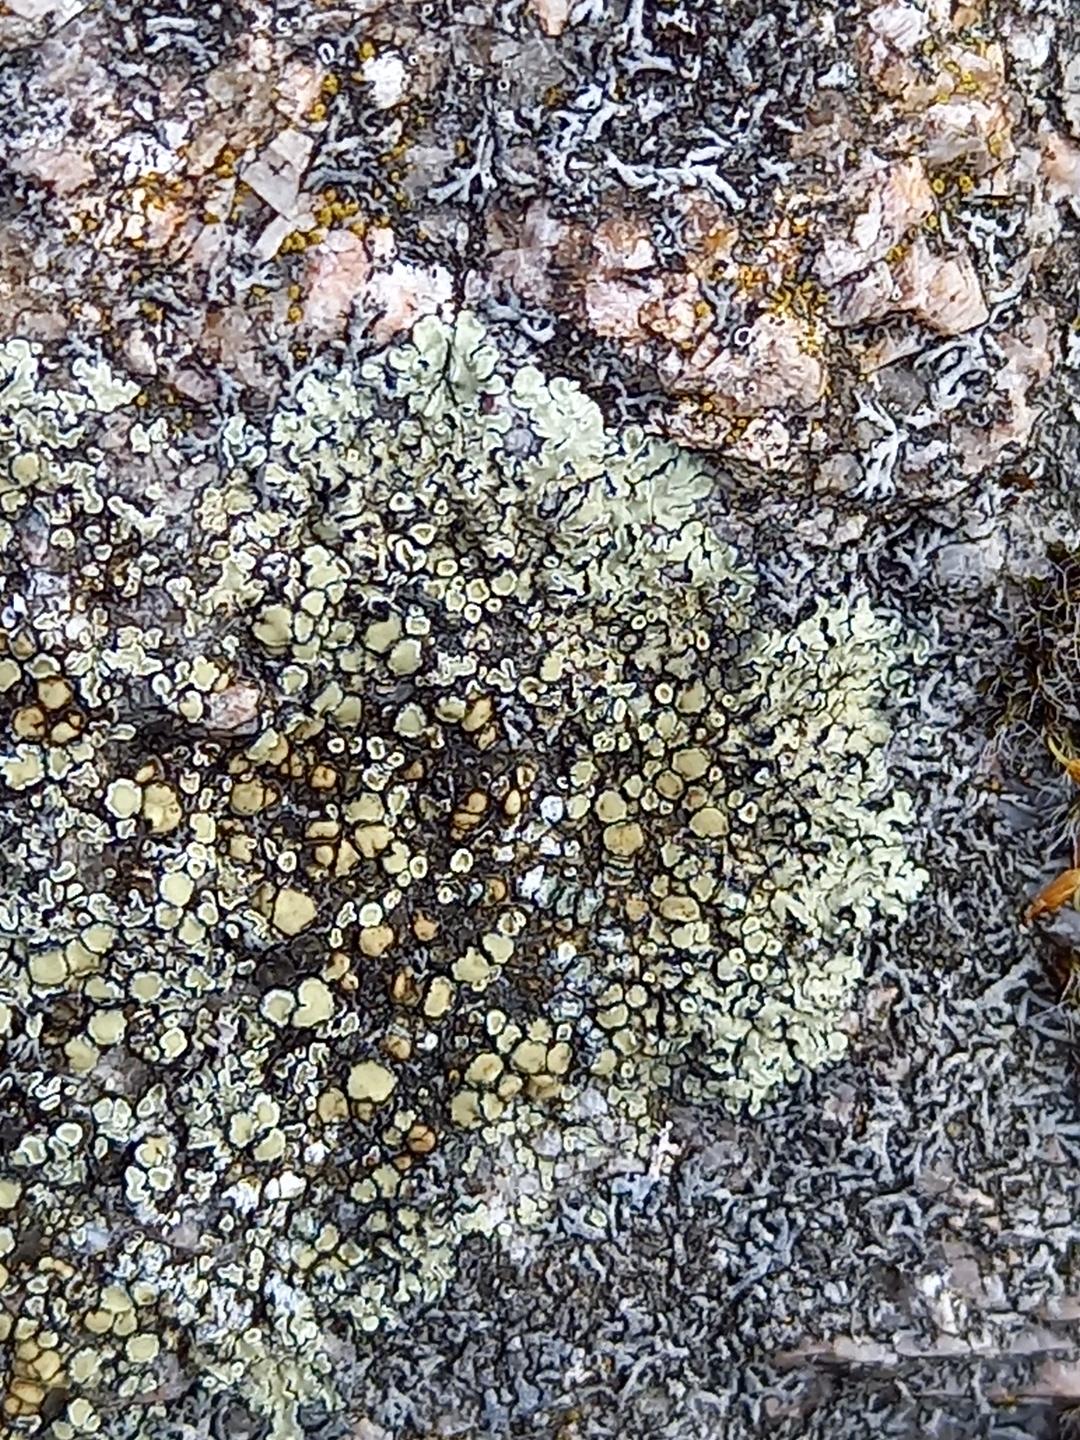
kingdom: Fungi
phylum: Ascomycota
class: Lecanoromycetes
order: Lecanorales
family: Lecanoraceae
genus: Protoparmeliopsis
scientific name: Protoparmeliopsis muralis
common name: randfliget kantskivelav
